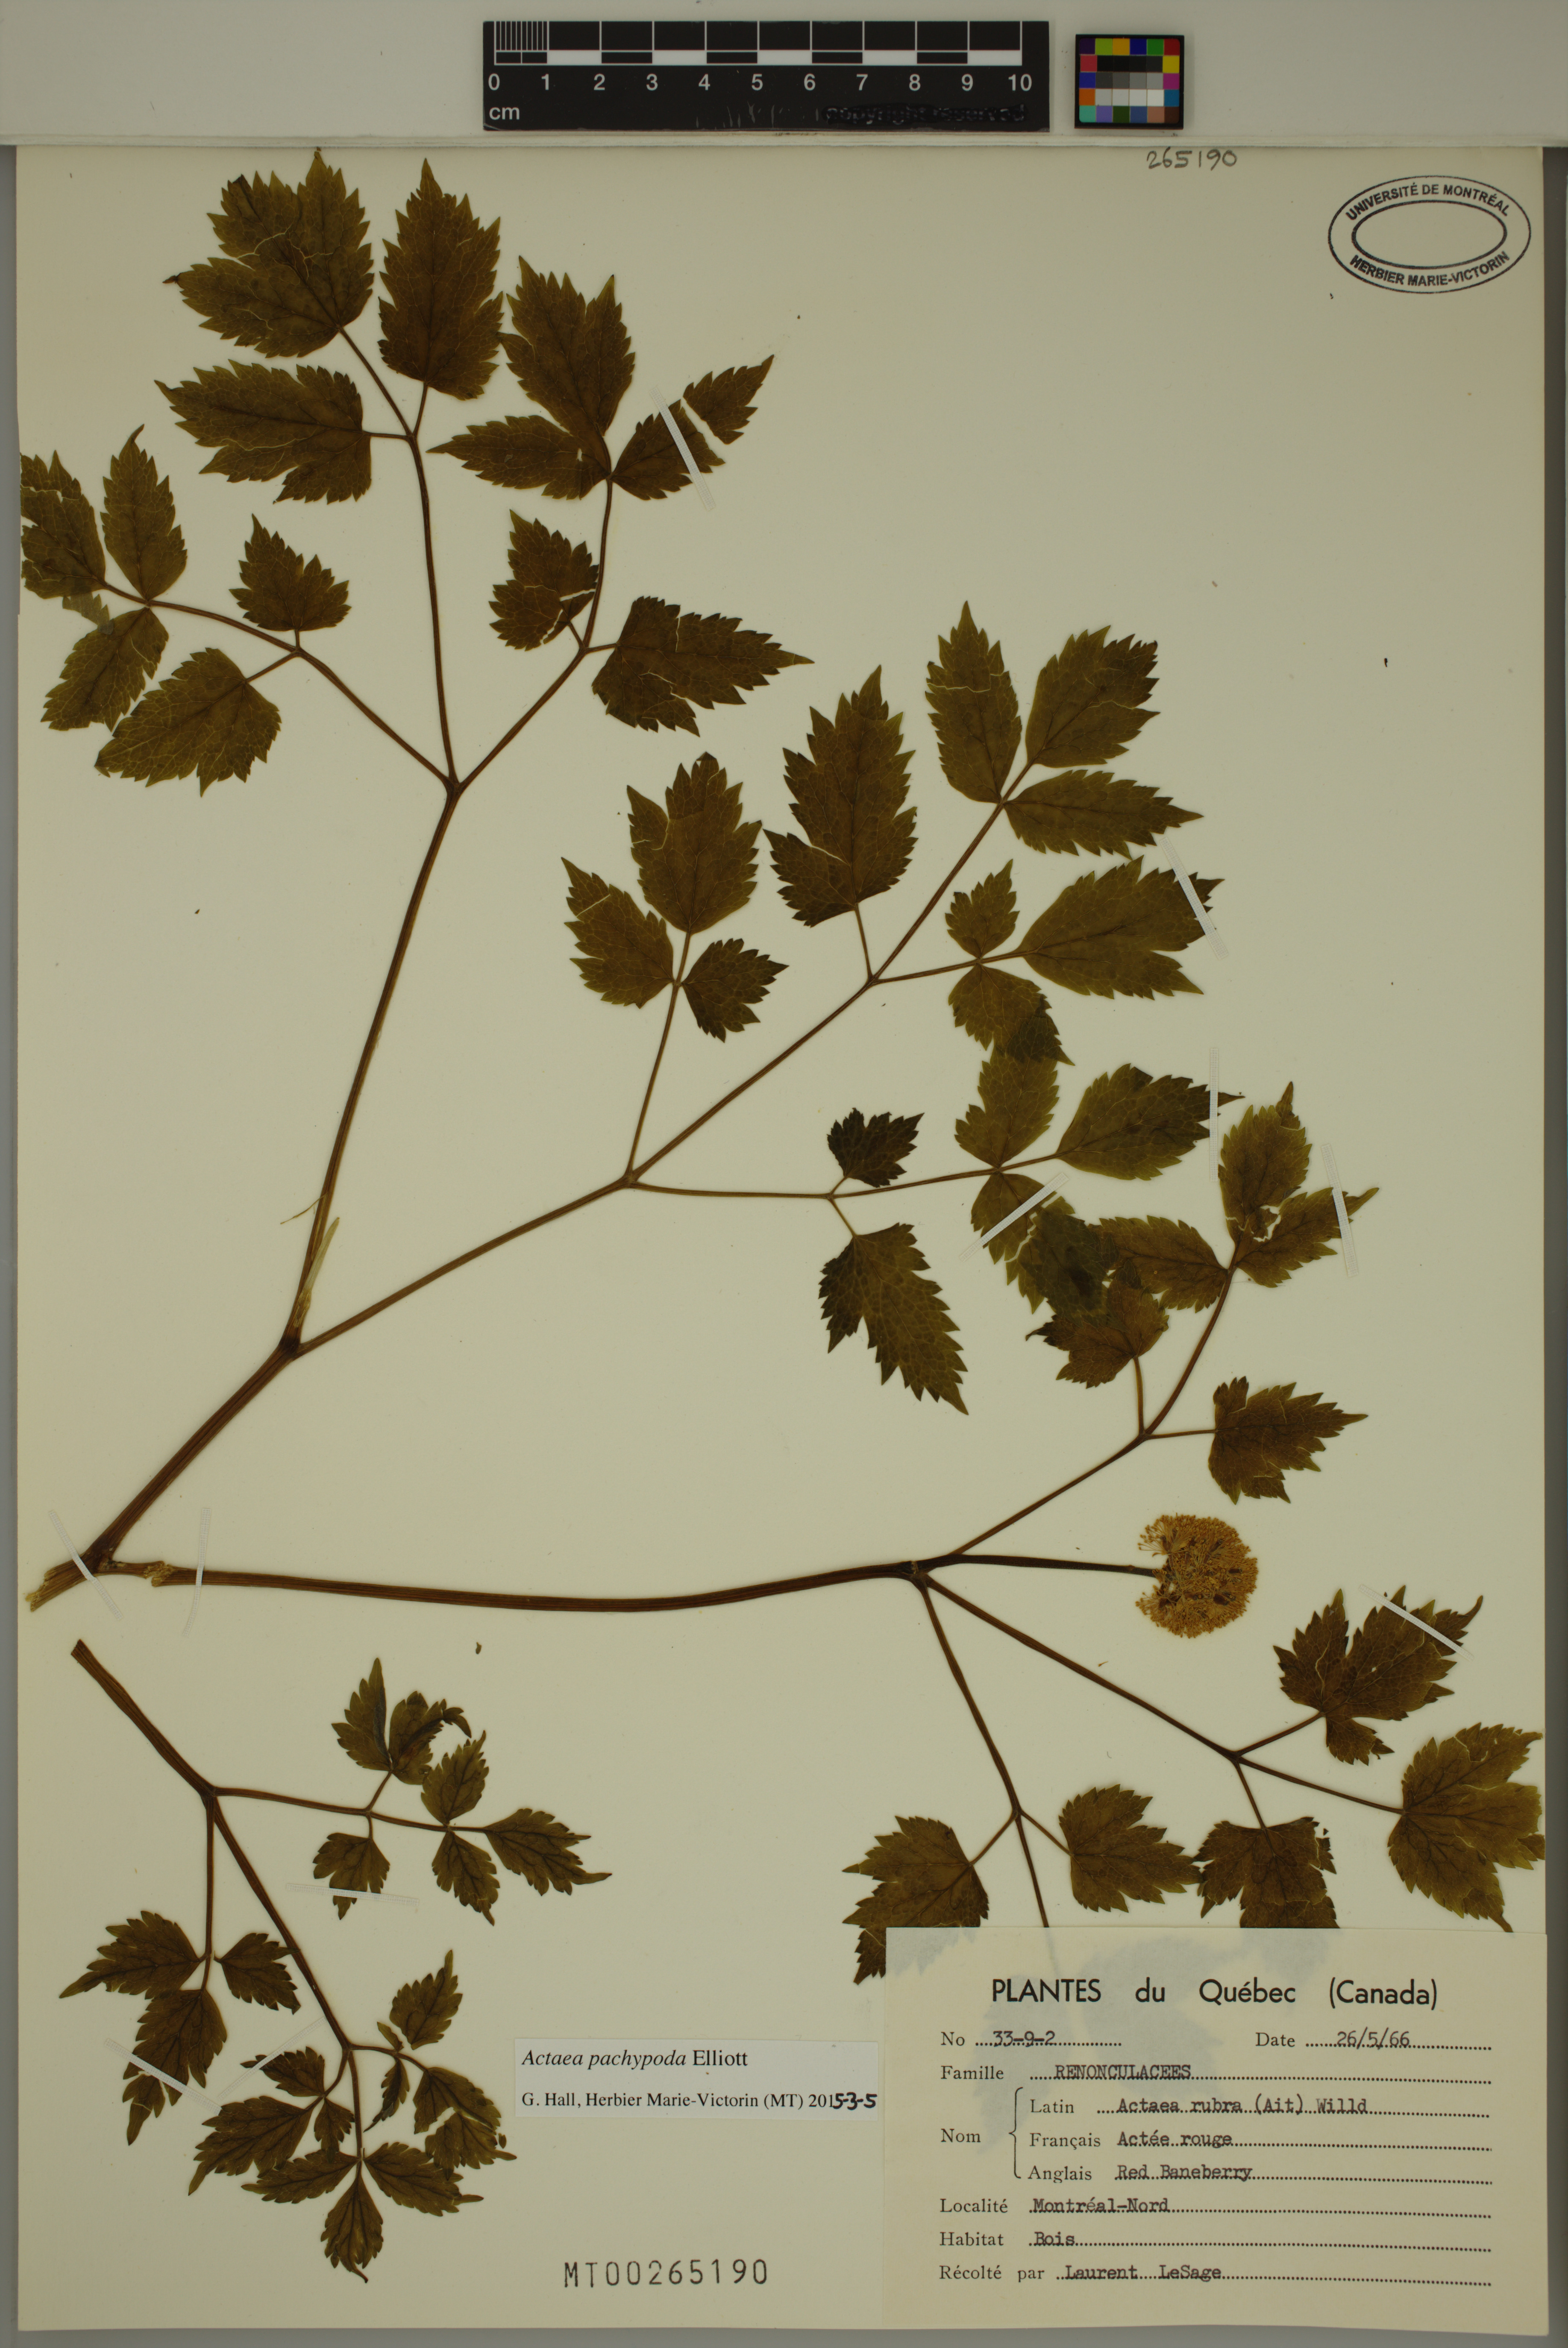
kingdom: Plantae
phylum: Tracheophyta
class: Magnoliopsida
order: Ranunculales
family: Ranunculaceae
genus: Actaea
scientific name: Actaea pachypoda
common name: Doll's-eyes
